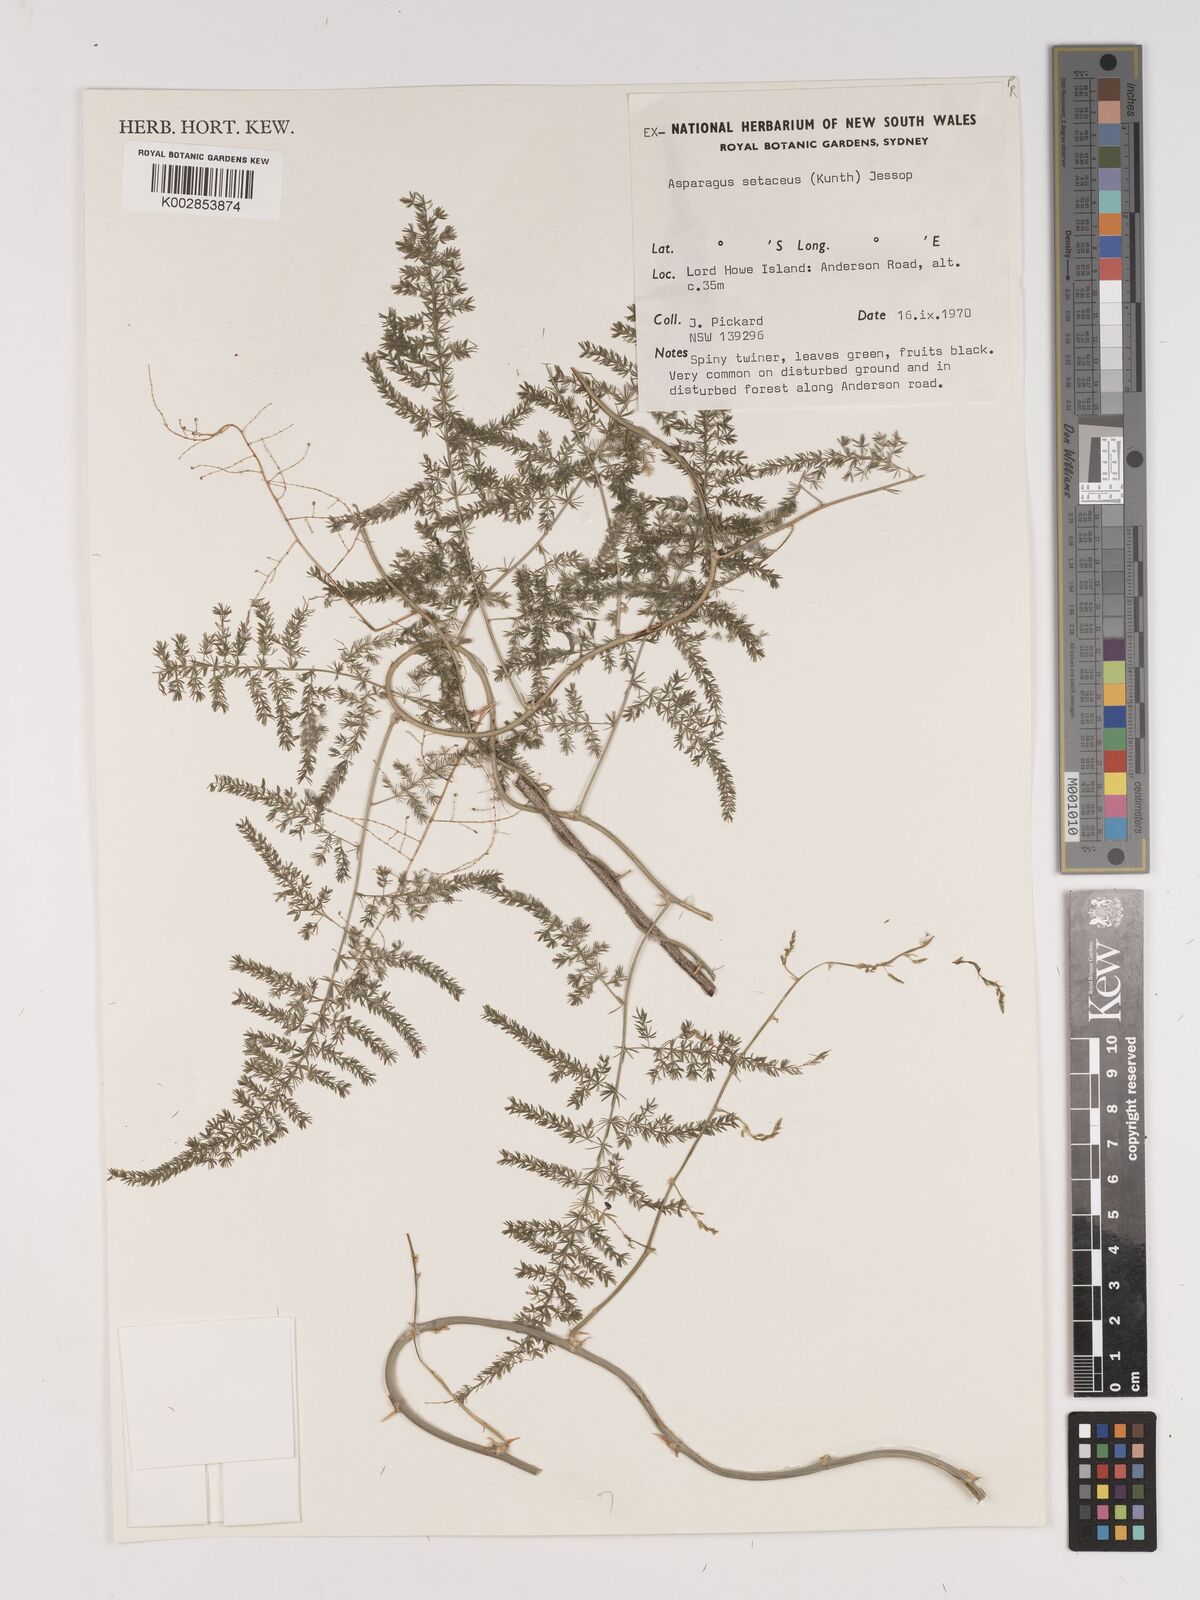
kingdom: Plantae
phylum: Tracheophyta
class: Liliopsida
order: Asparagales
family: Asparagaceae
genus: Asparagus
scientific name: Asparagus setaceus
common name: Common asparagus fern
